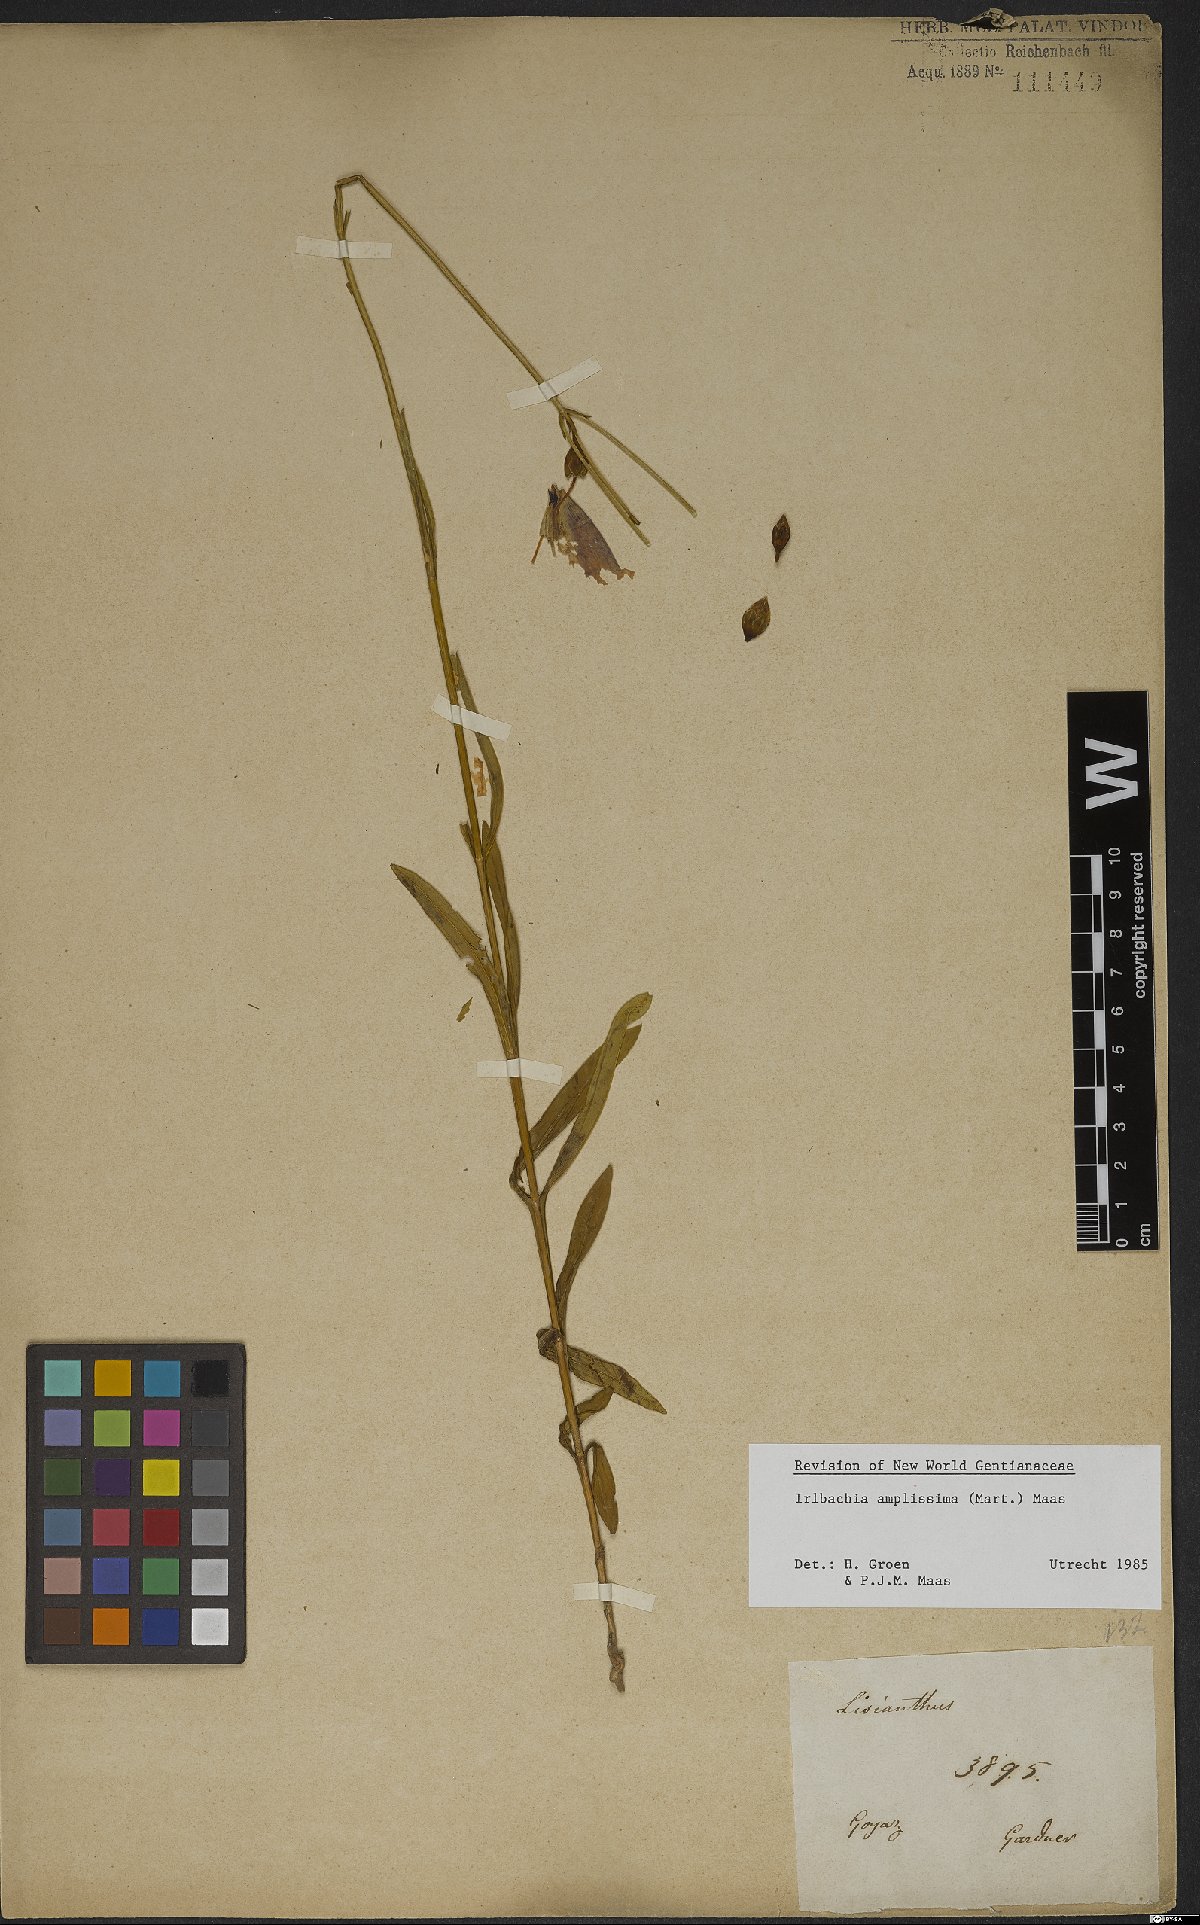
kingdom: Plantae
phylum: Tracheophyta
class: Magnoliopsida
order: Gentianales
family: Gentianaceae
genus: Calolisianthus
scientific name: Calolisianthus amplissimus
